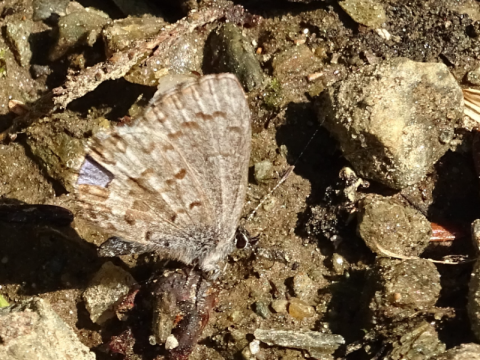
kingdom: Animalia
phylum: Arthropoda
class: Insecta
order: Lepidoptera
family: Lycaenidae
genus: Celastrina
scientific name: Celastrina lucia
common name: Northern Spring Azure
